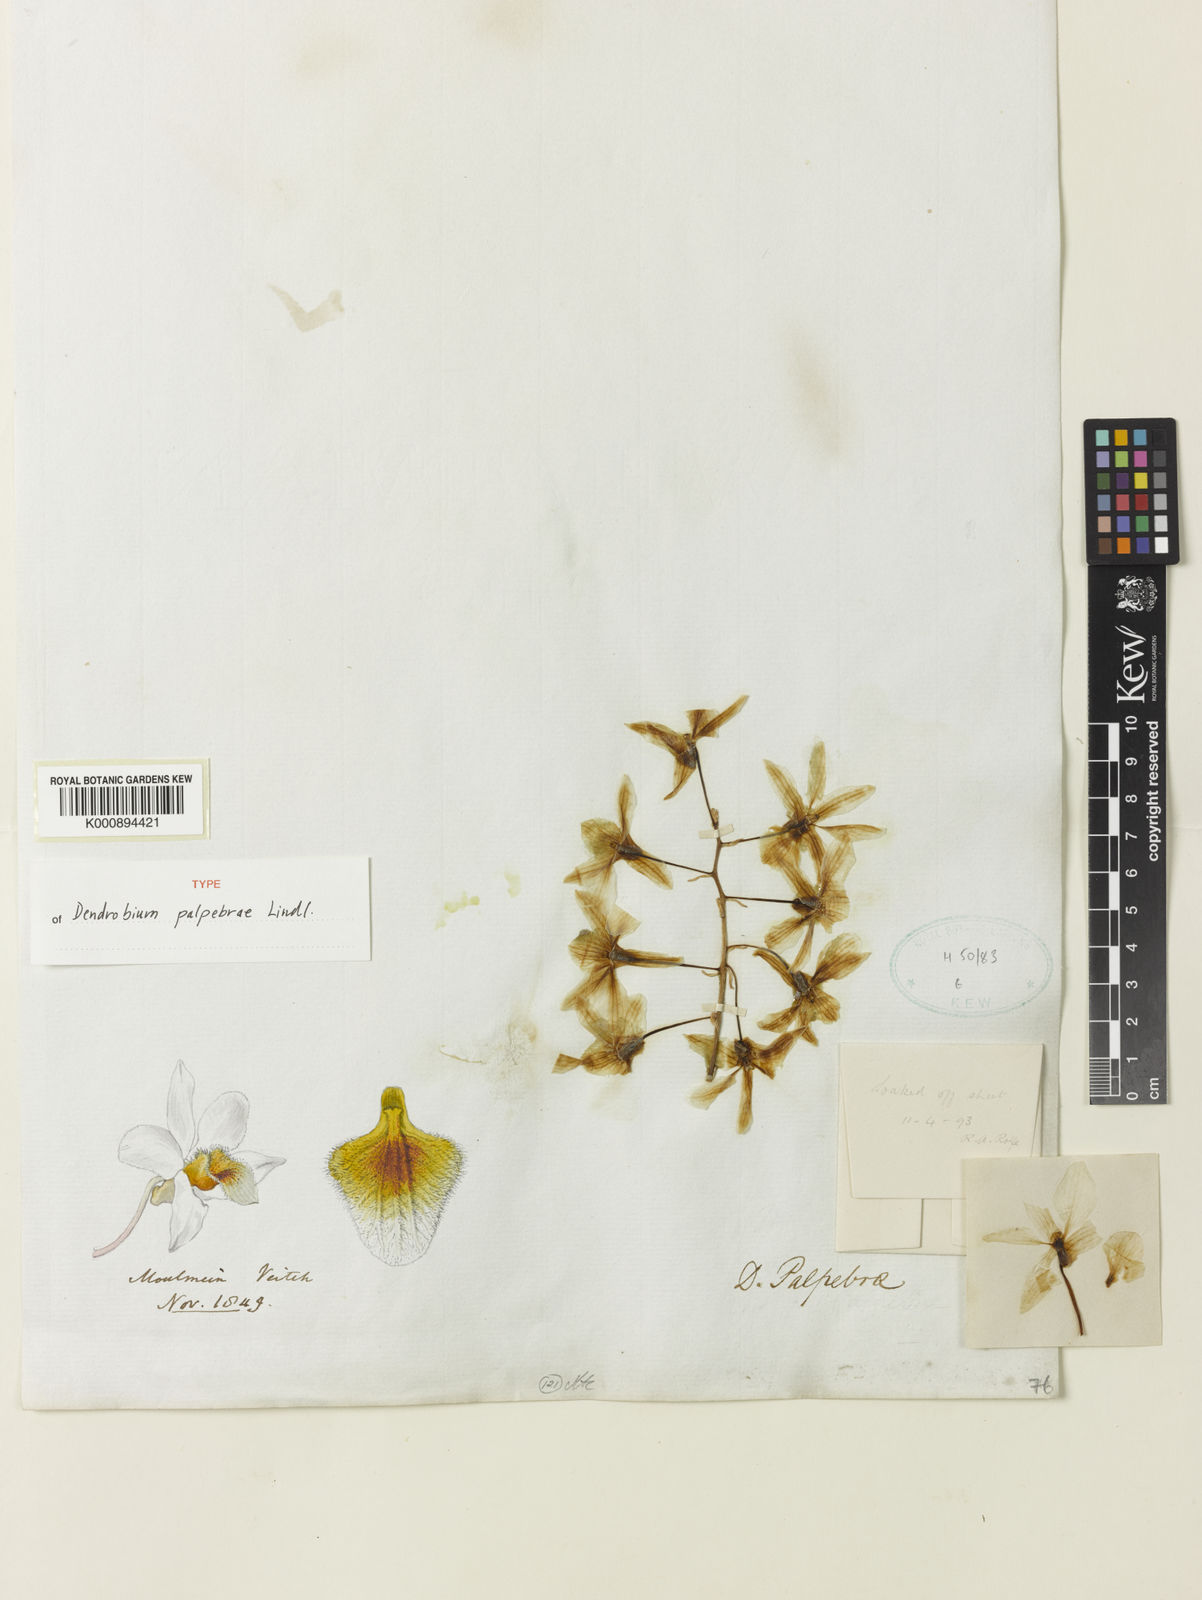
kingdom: Plantae
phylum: Tracheophyta
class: Liliopsida
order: Asparagales
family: Orchidaceae
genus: Dendrobium
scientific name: Dendrobium palpebrae
